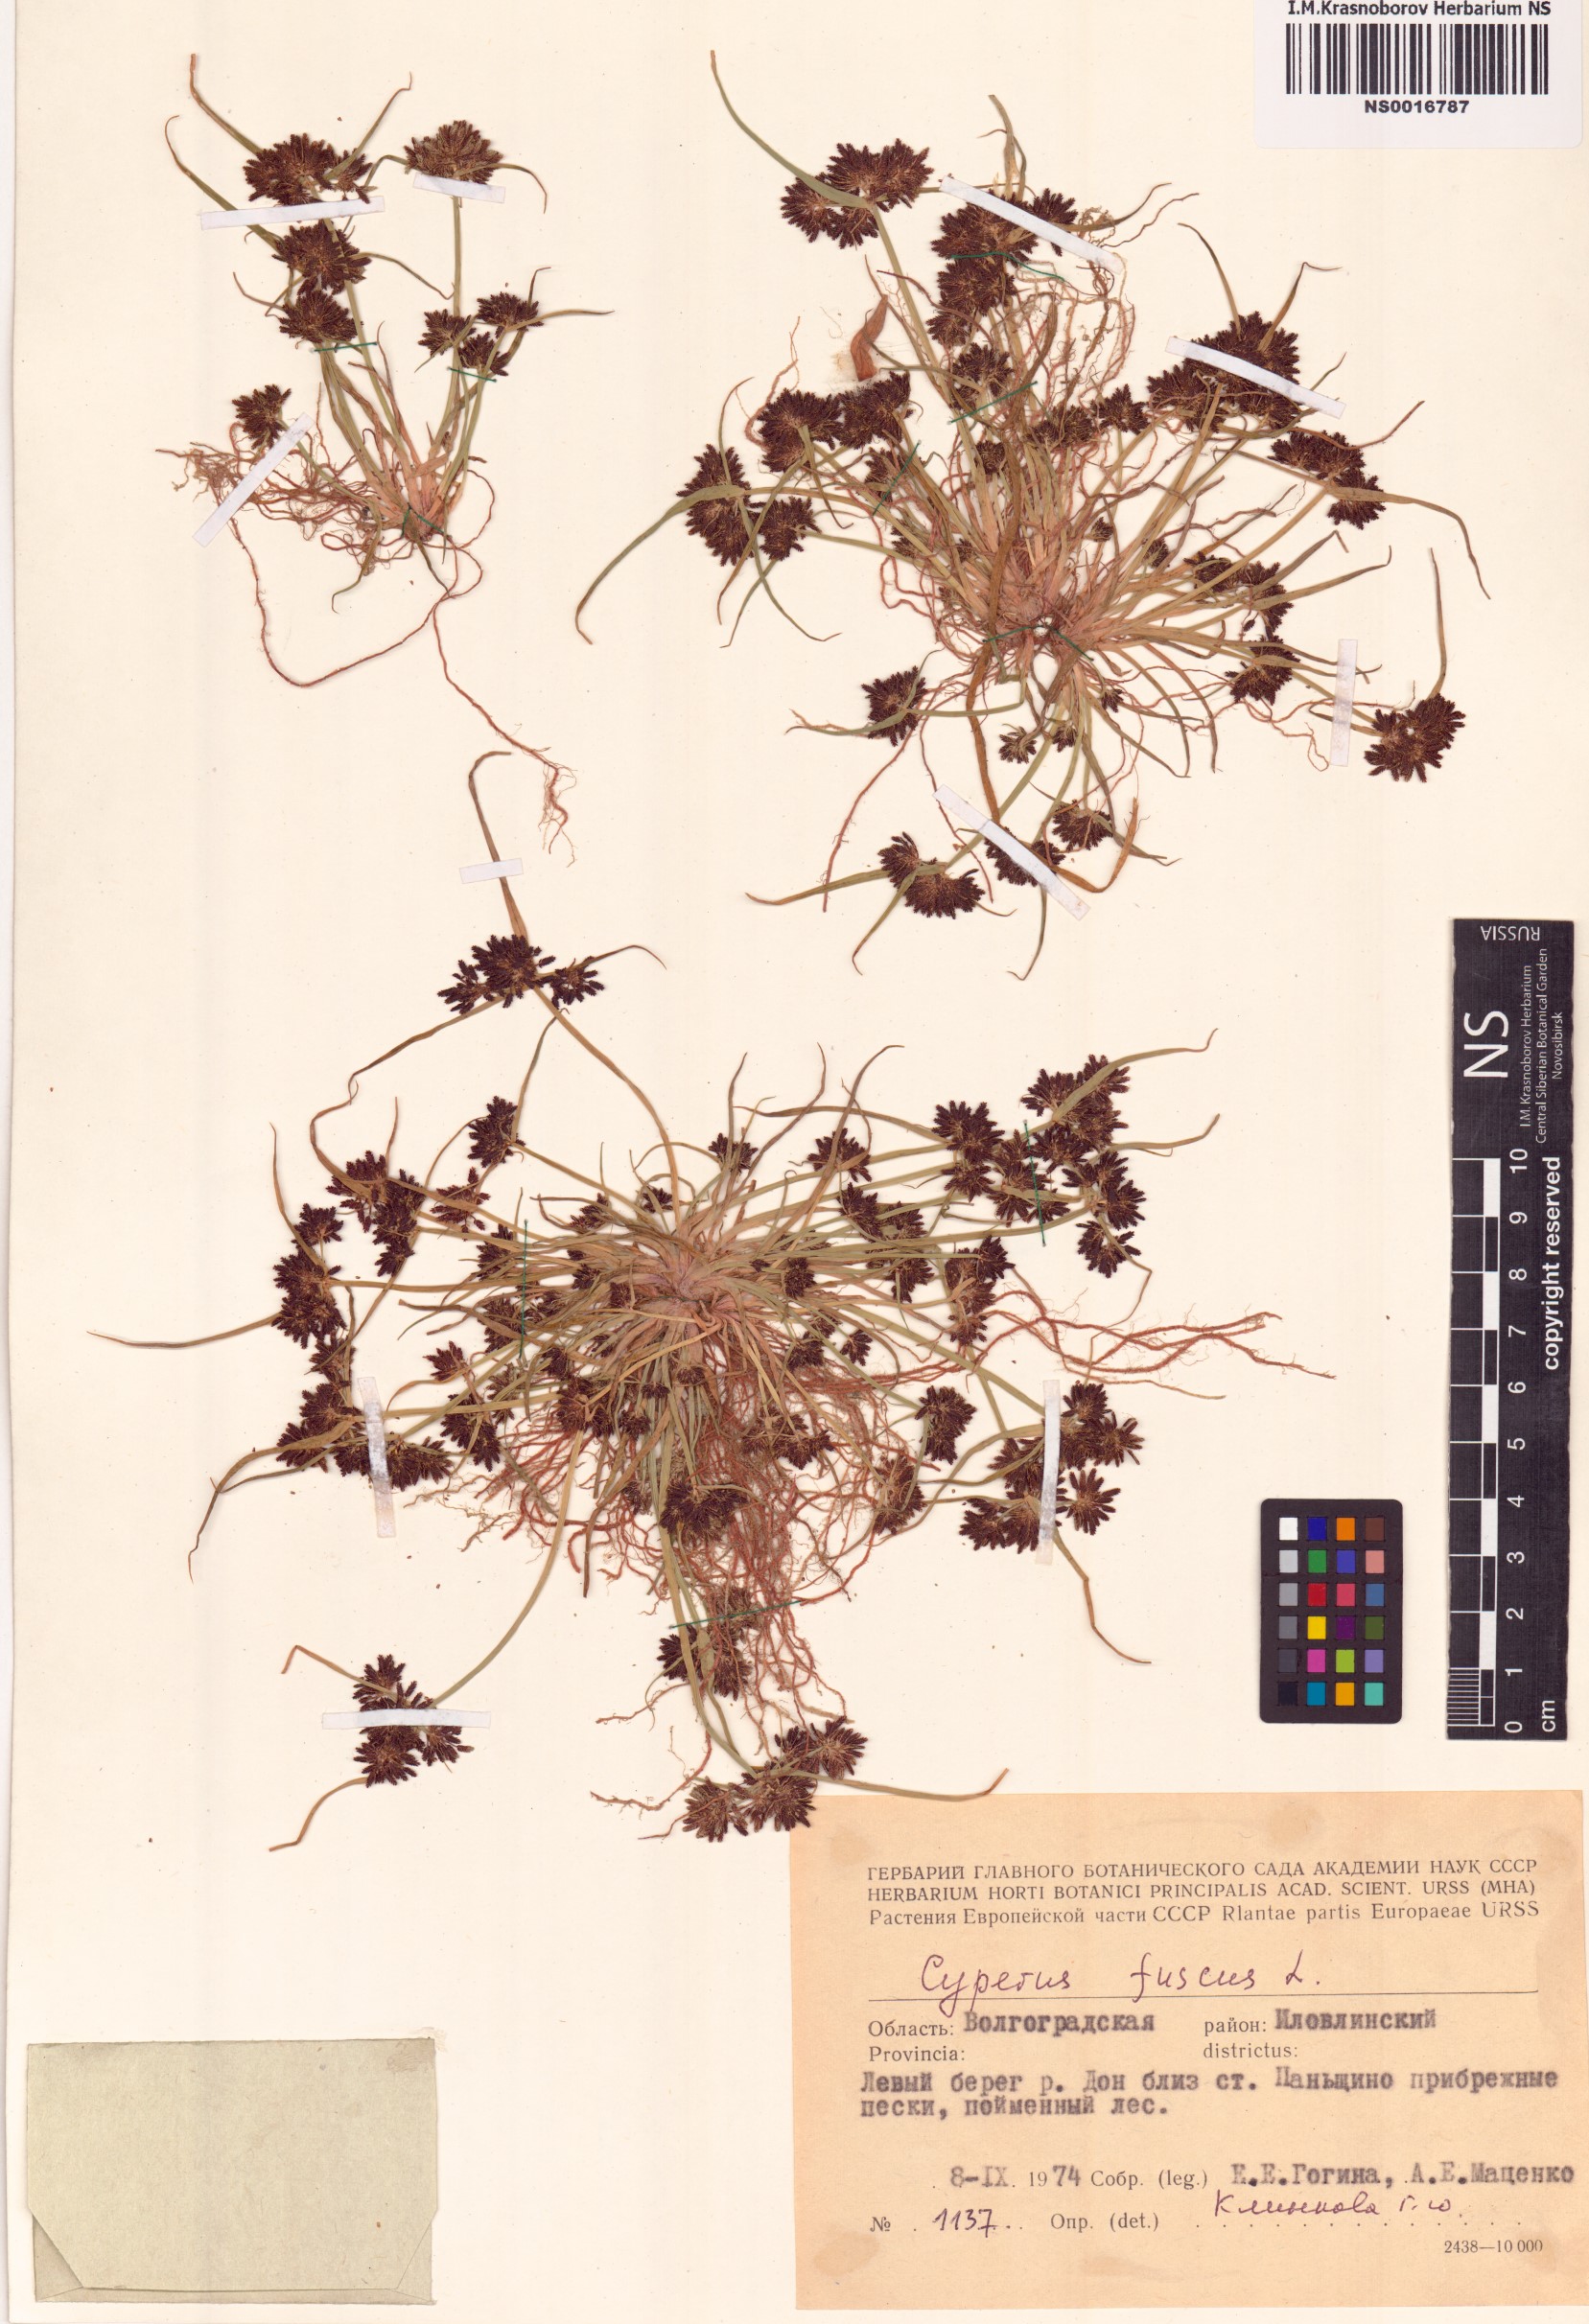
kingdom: Plantae
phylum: Tracheophyta
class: Liliopsida
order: Poales
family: Cyperaceae
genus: Cyperus
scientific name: Cyperus fuscus
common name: Brown galingale
